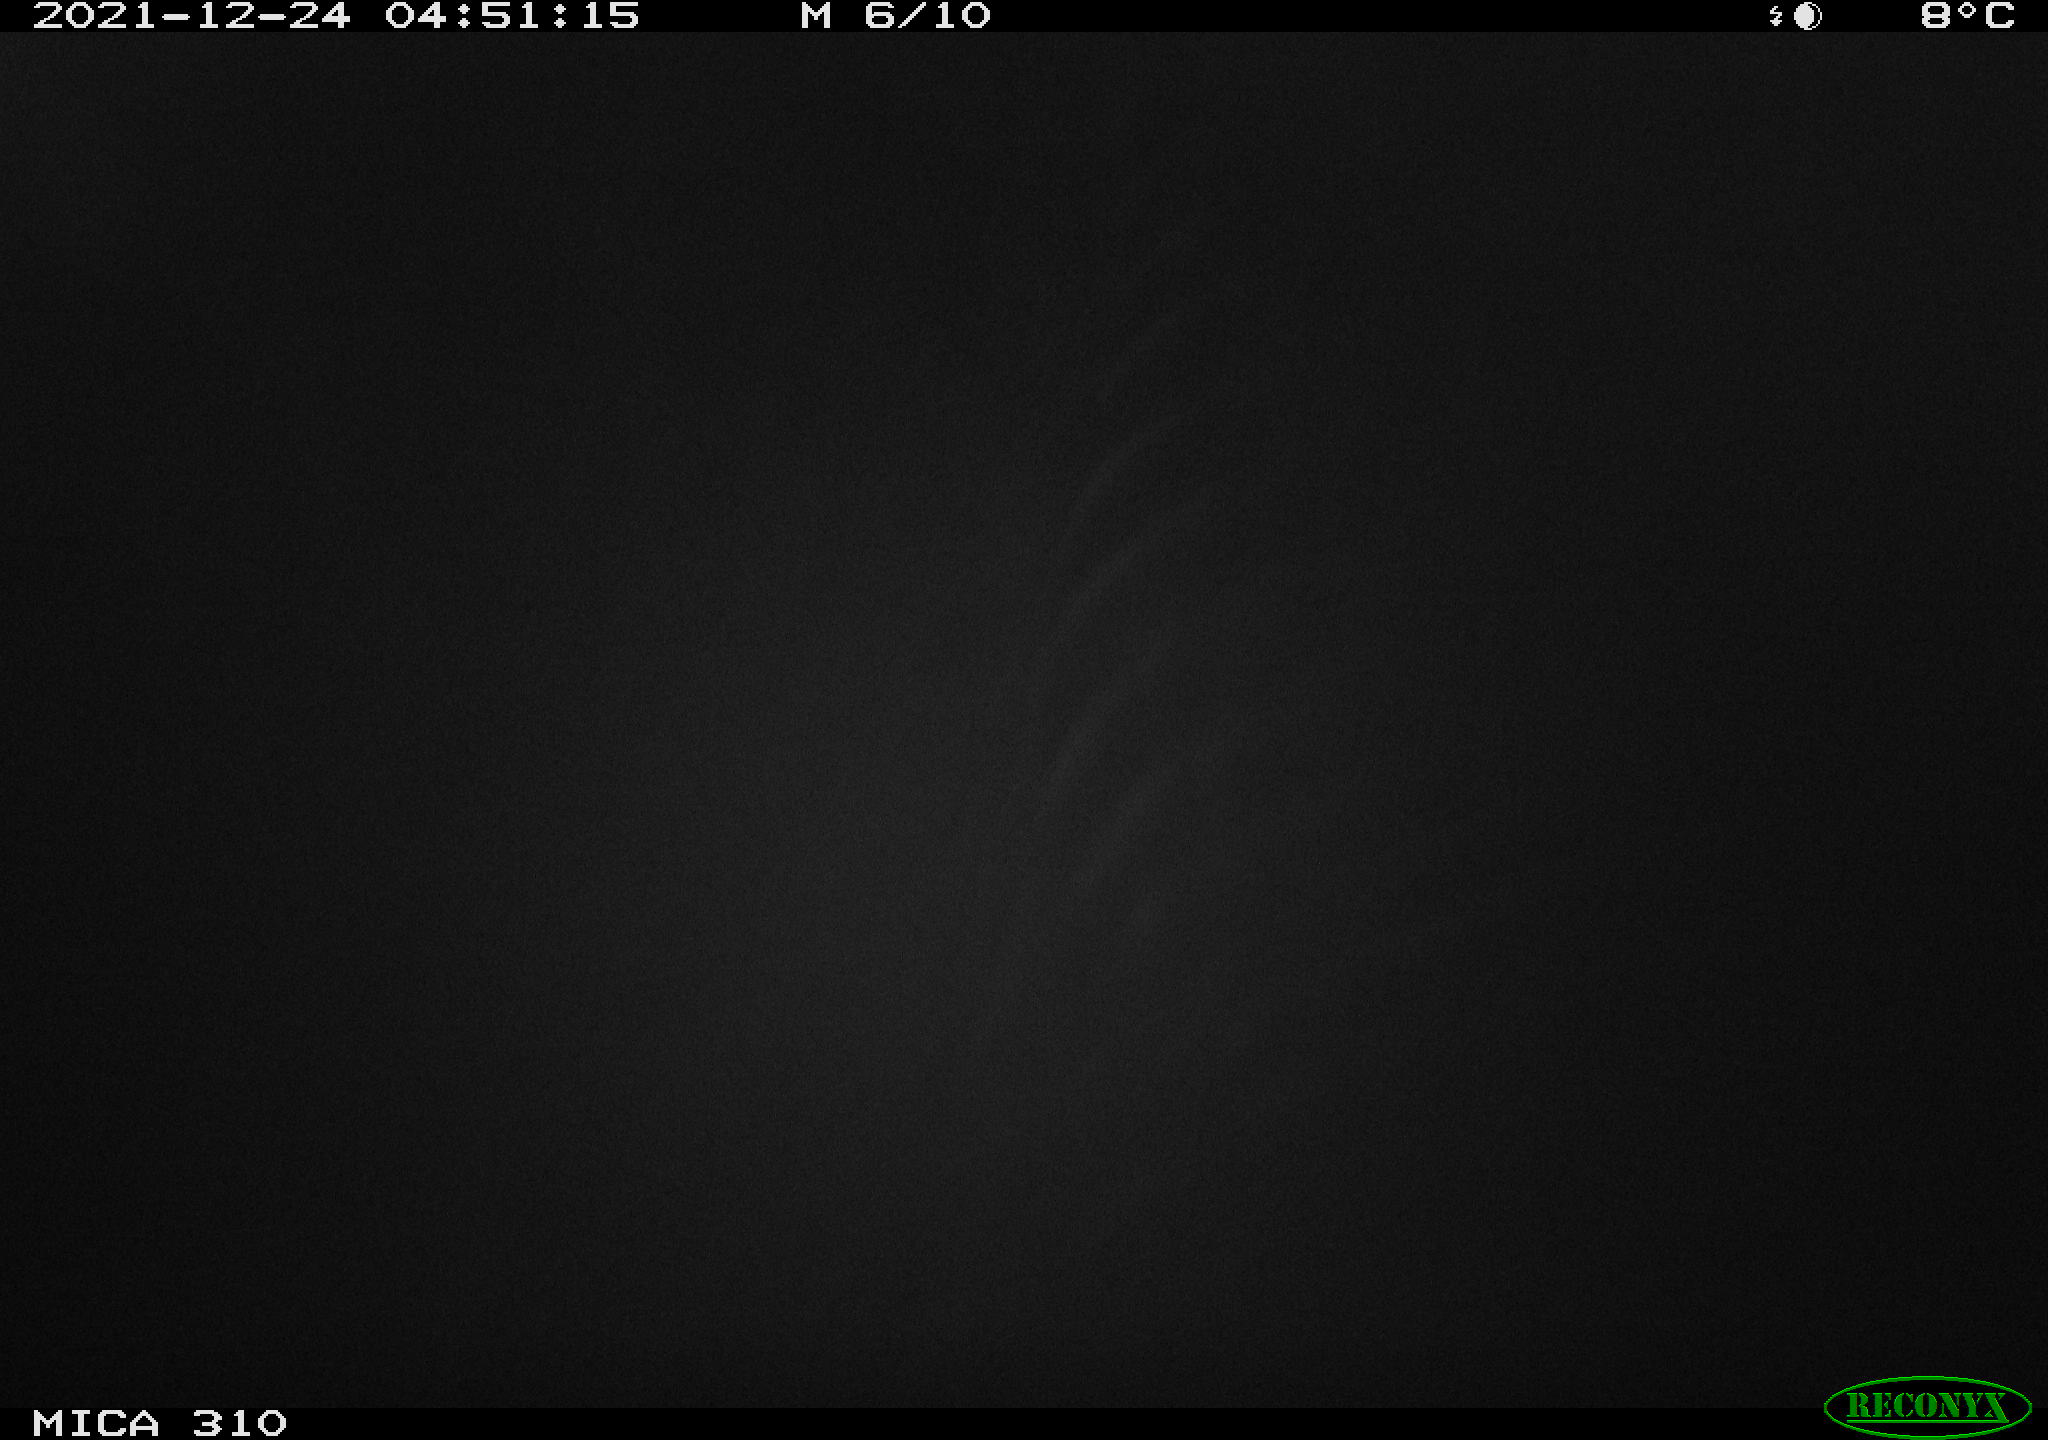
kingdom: Animalia
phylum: Chordata
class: Aves
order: Anseriformes
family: Anatidae
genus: Anas
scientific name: Anas platyrhynchos
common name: Mallard
